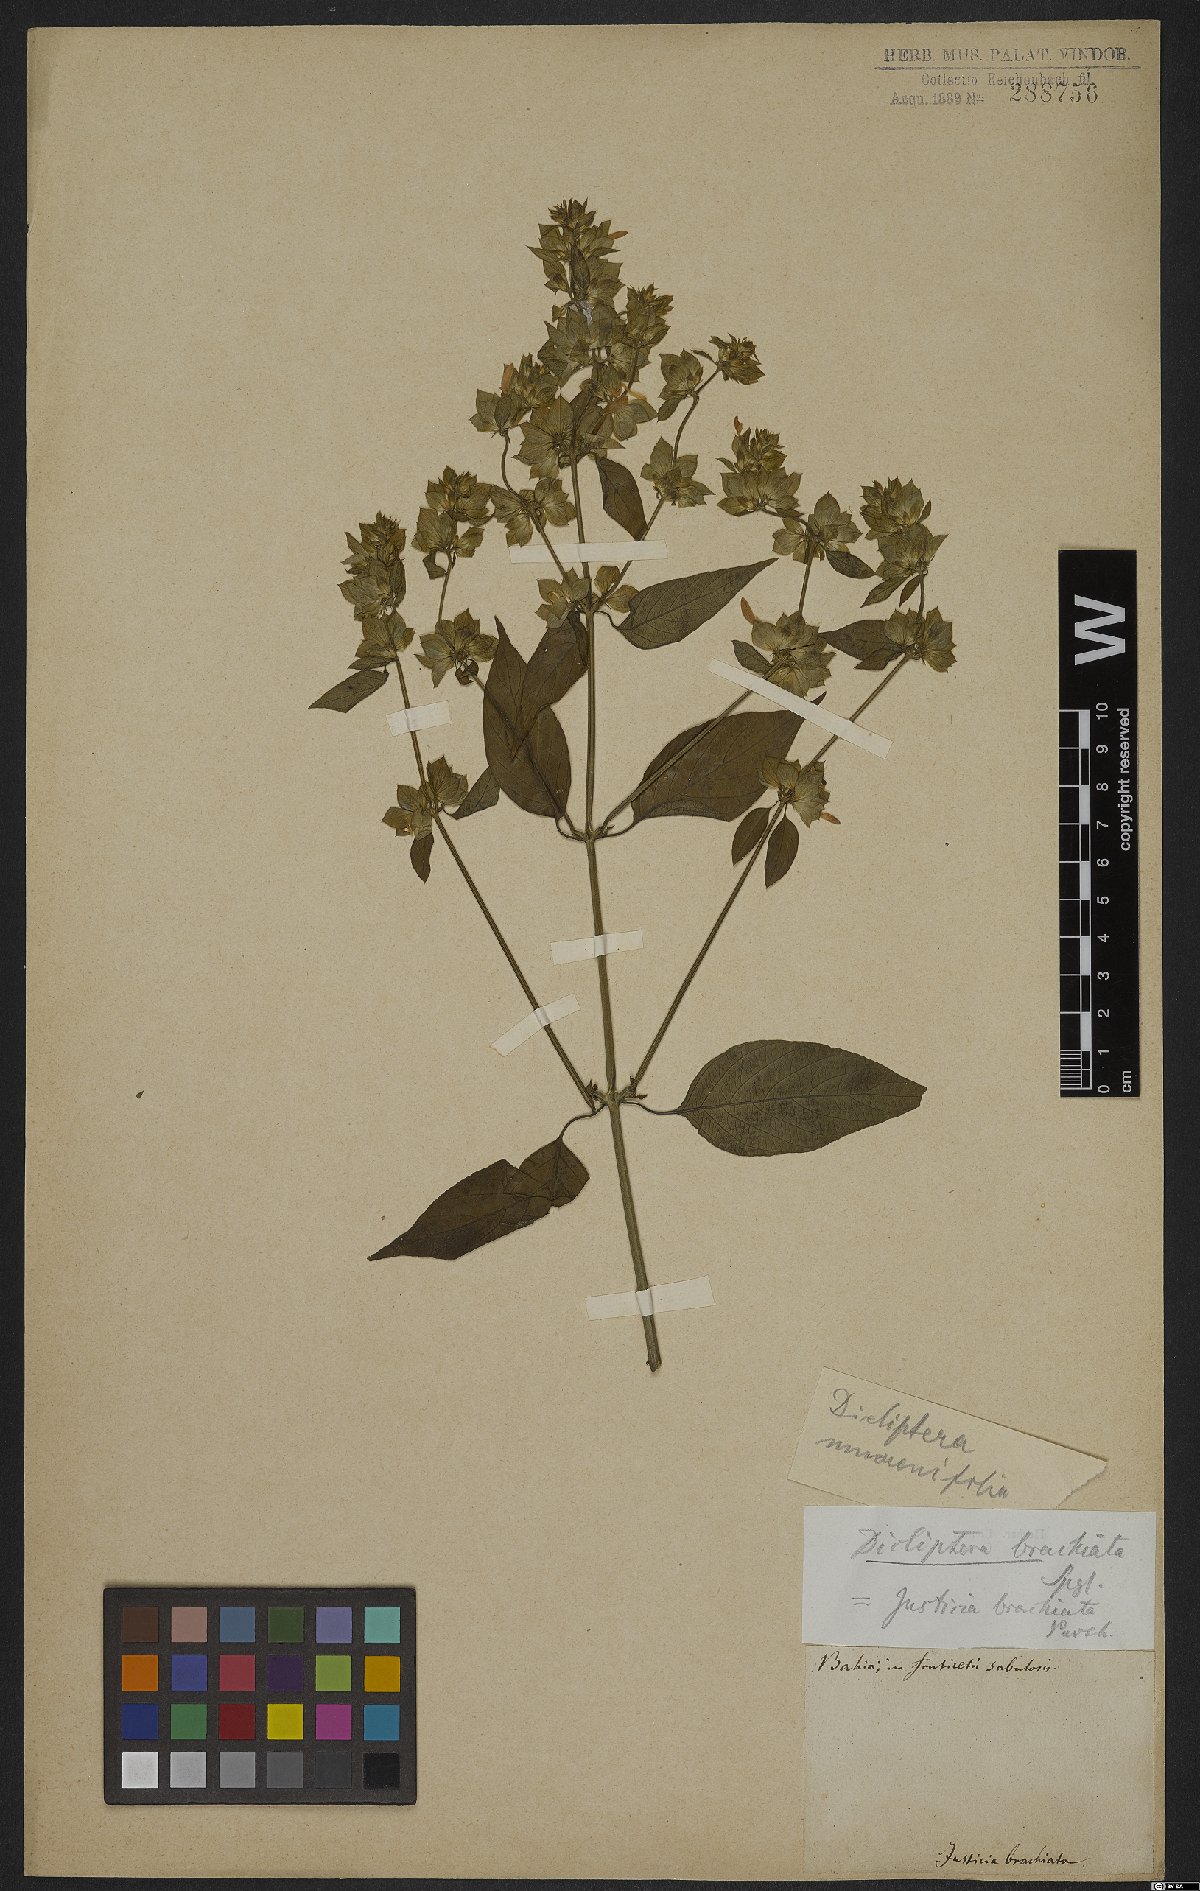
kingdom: Plantae
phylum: Tracheophyta
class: Magnoliopsida
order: Lamiales
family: Acanthaceae
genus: Dicliptera
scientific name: Dicliptera mucronifolia
